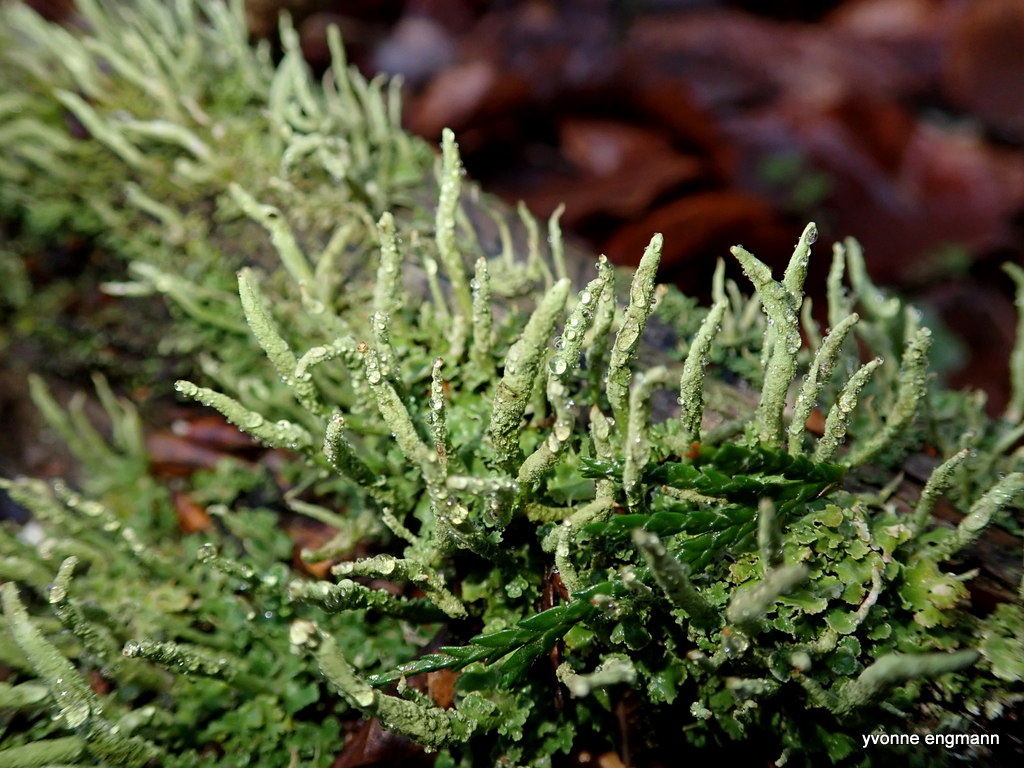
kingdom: Fungi
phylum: Ascomycota
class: Lecanoromycetes
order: Lecanorales
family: Cladoniaceae
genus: Cladonia
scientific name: Cladonia coniocraea
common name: træfods-bægerlav
